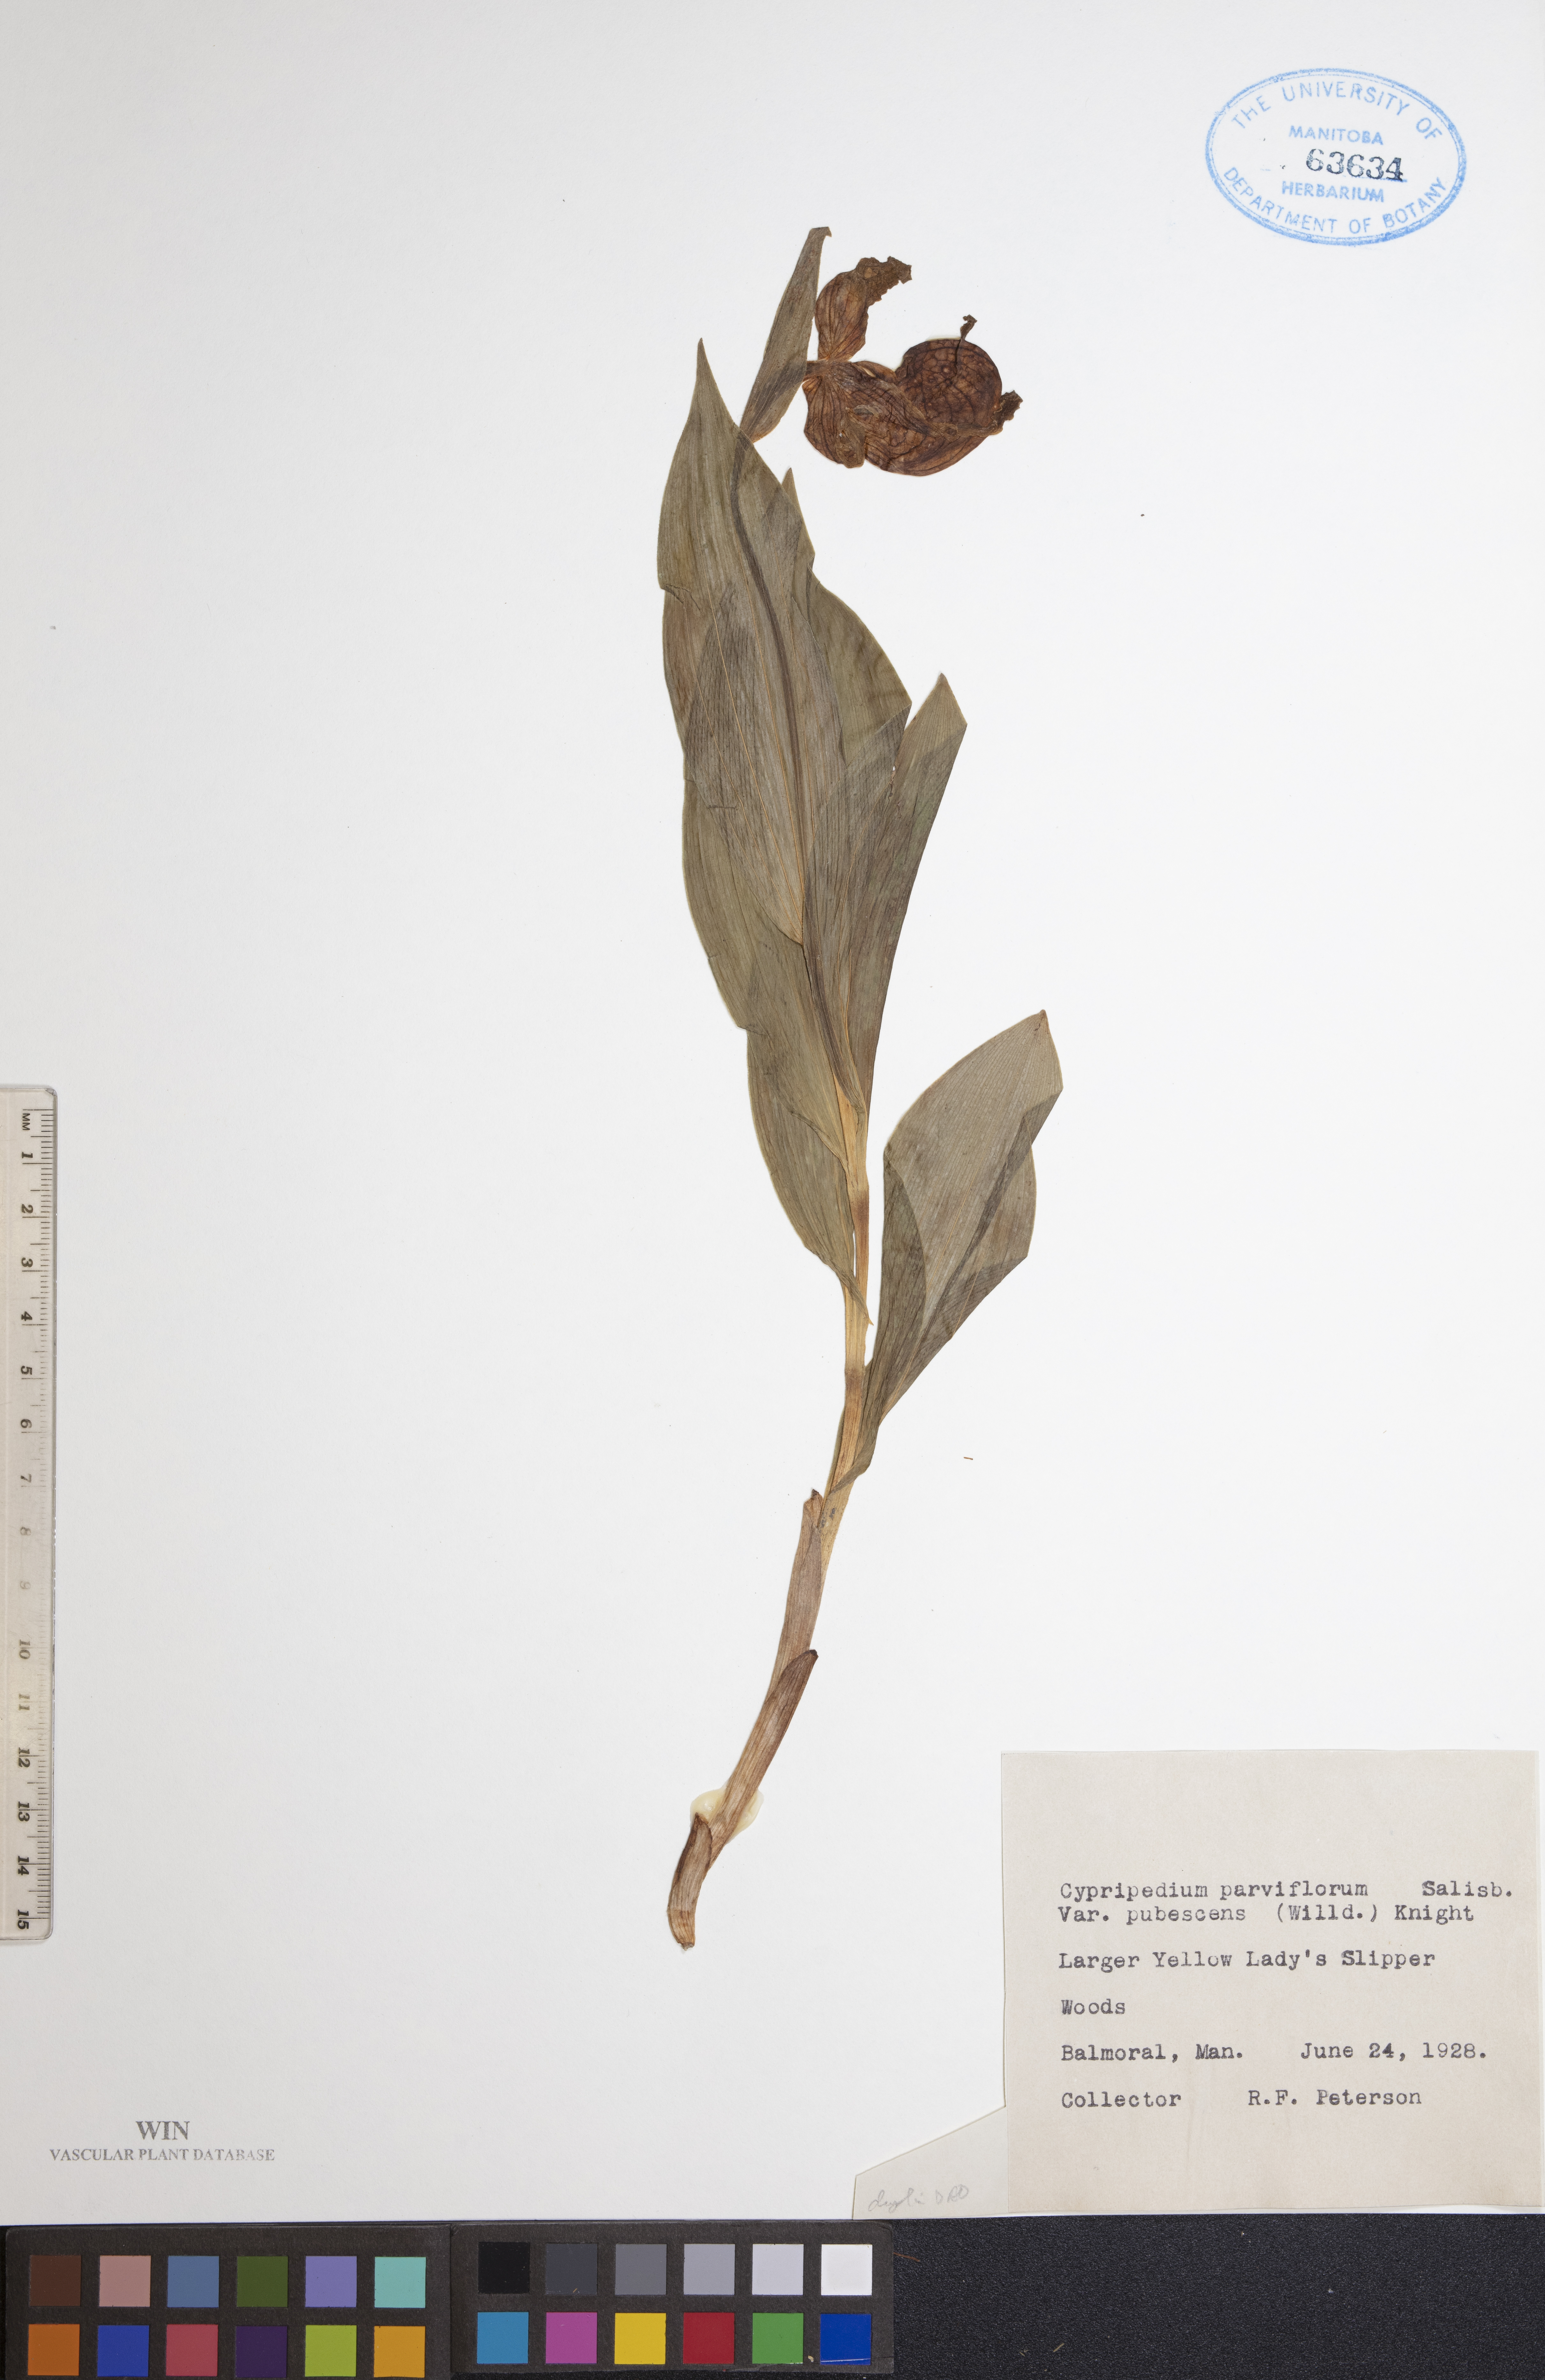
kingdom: Plantae
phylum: Tracheophyta
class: Liliopsida
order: Asparagales
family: Orchidaceae
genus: Cypripedium
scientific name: Cypripedium parviflorum
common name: American yellow lady's-slipper
